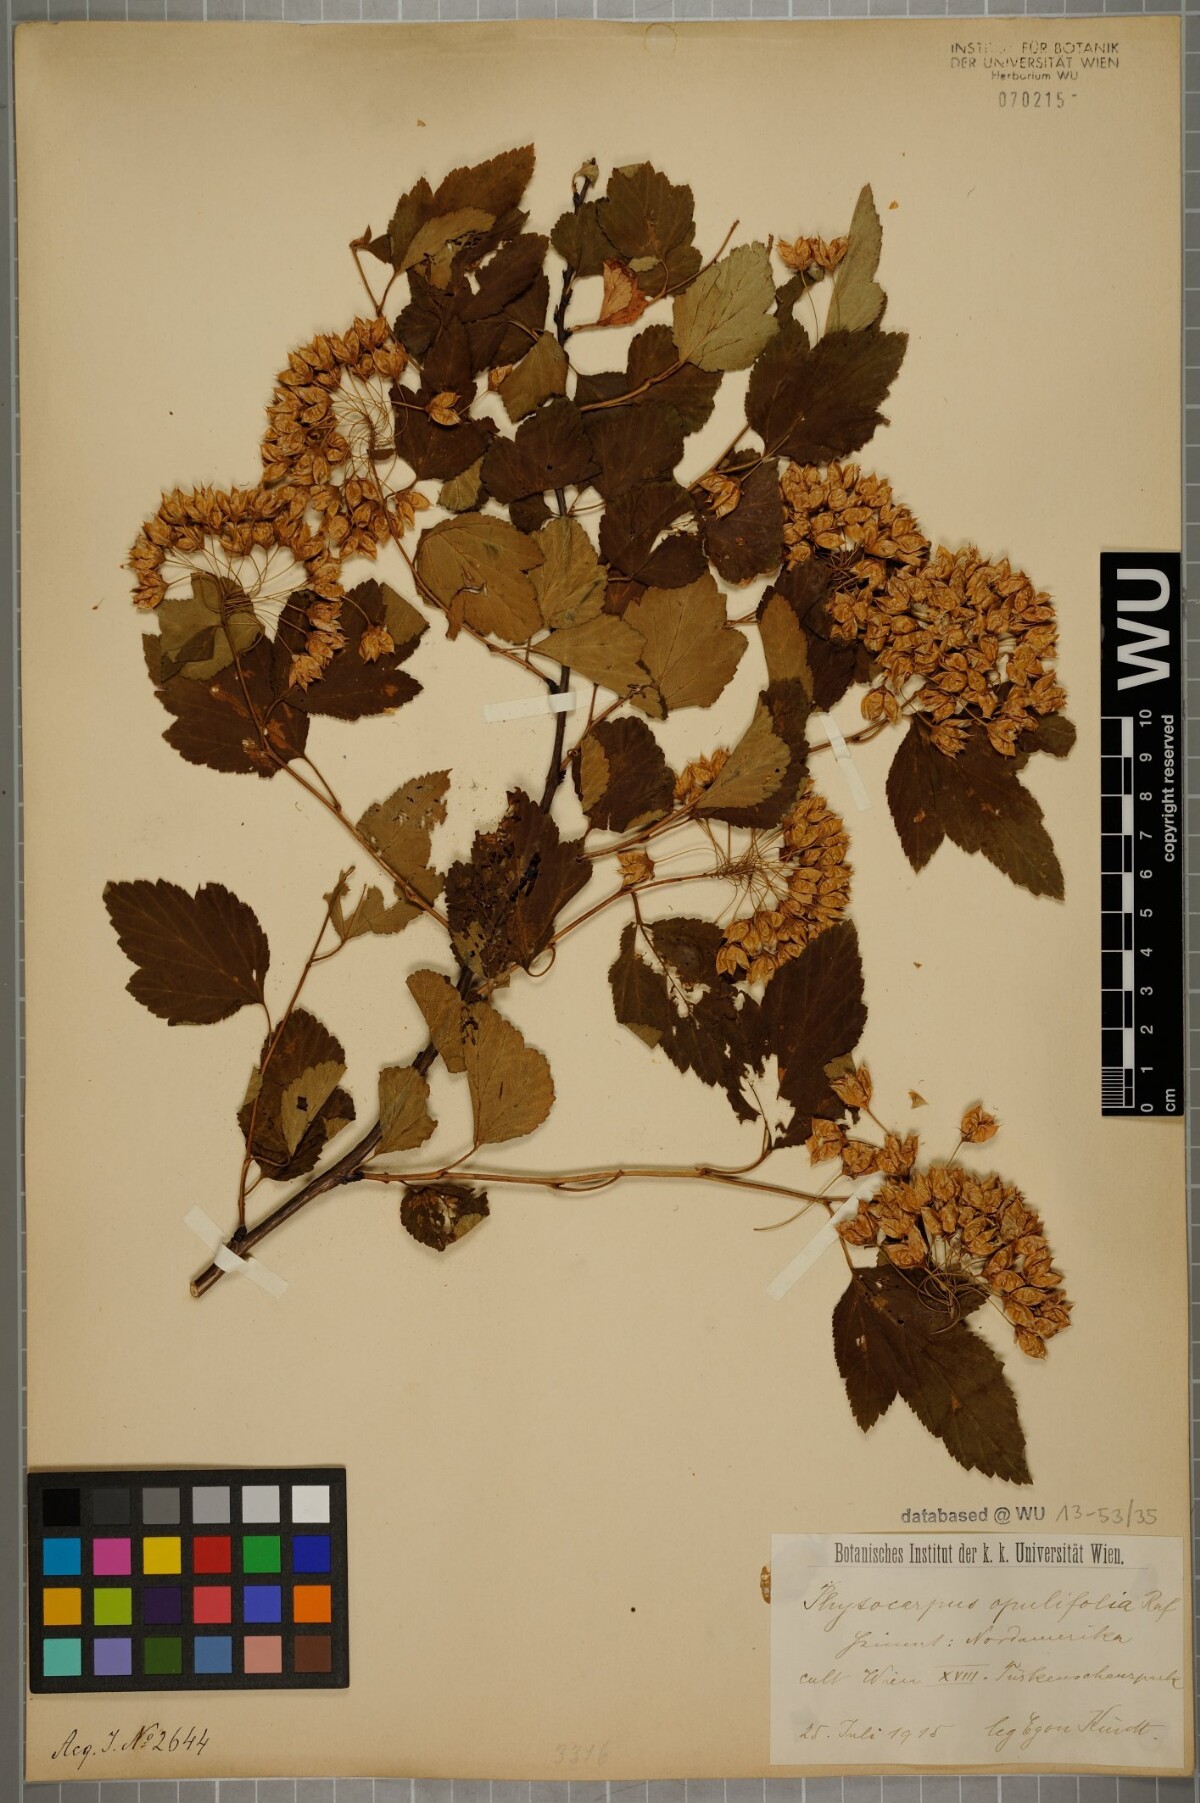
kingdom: Plantae
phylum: Tracheophyta
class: Magnoliopsida
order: Rosales
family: Rosaceae
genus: Physocarpus
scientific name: Physocarpus opulifolius
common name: Ninebark
